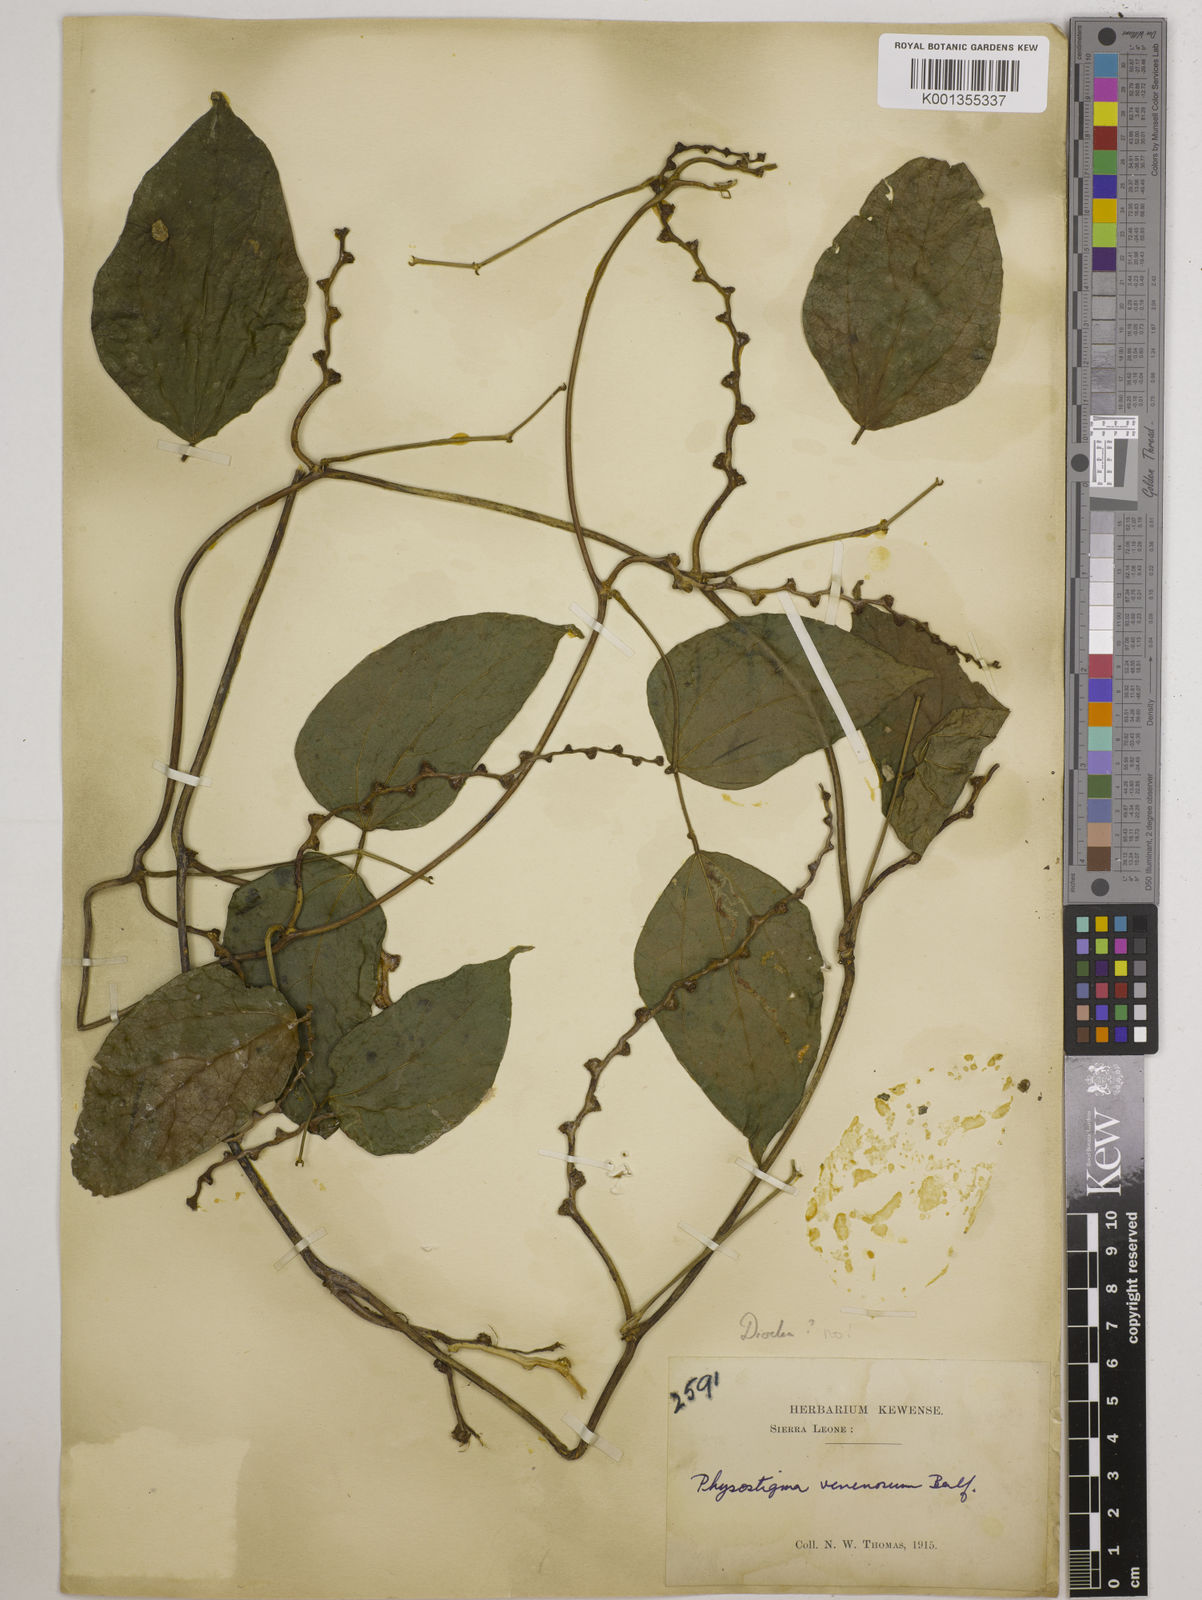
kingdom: Plantae
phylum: Tracheophyta
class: Magnoliopsida
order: Fabales
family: Fabaceae
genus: Physostigma
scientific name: Physostigma venenosum
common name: Calabar-bean
